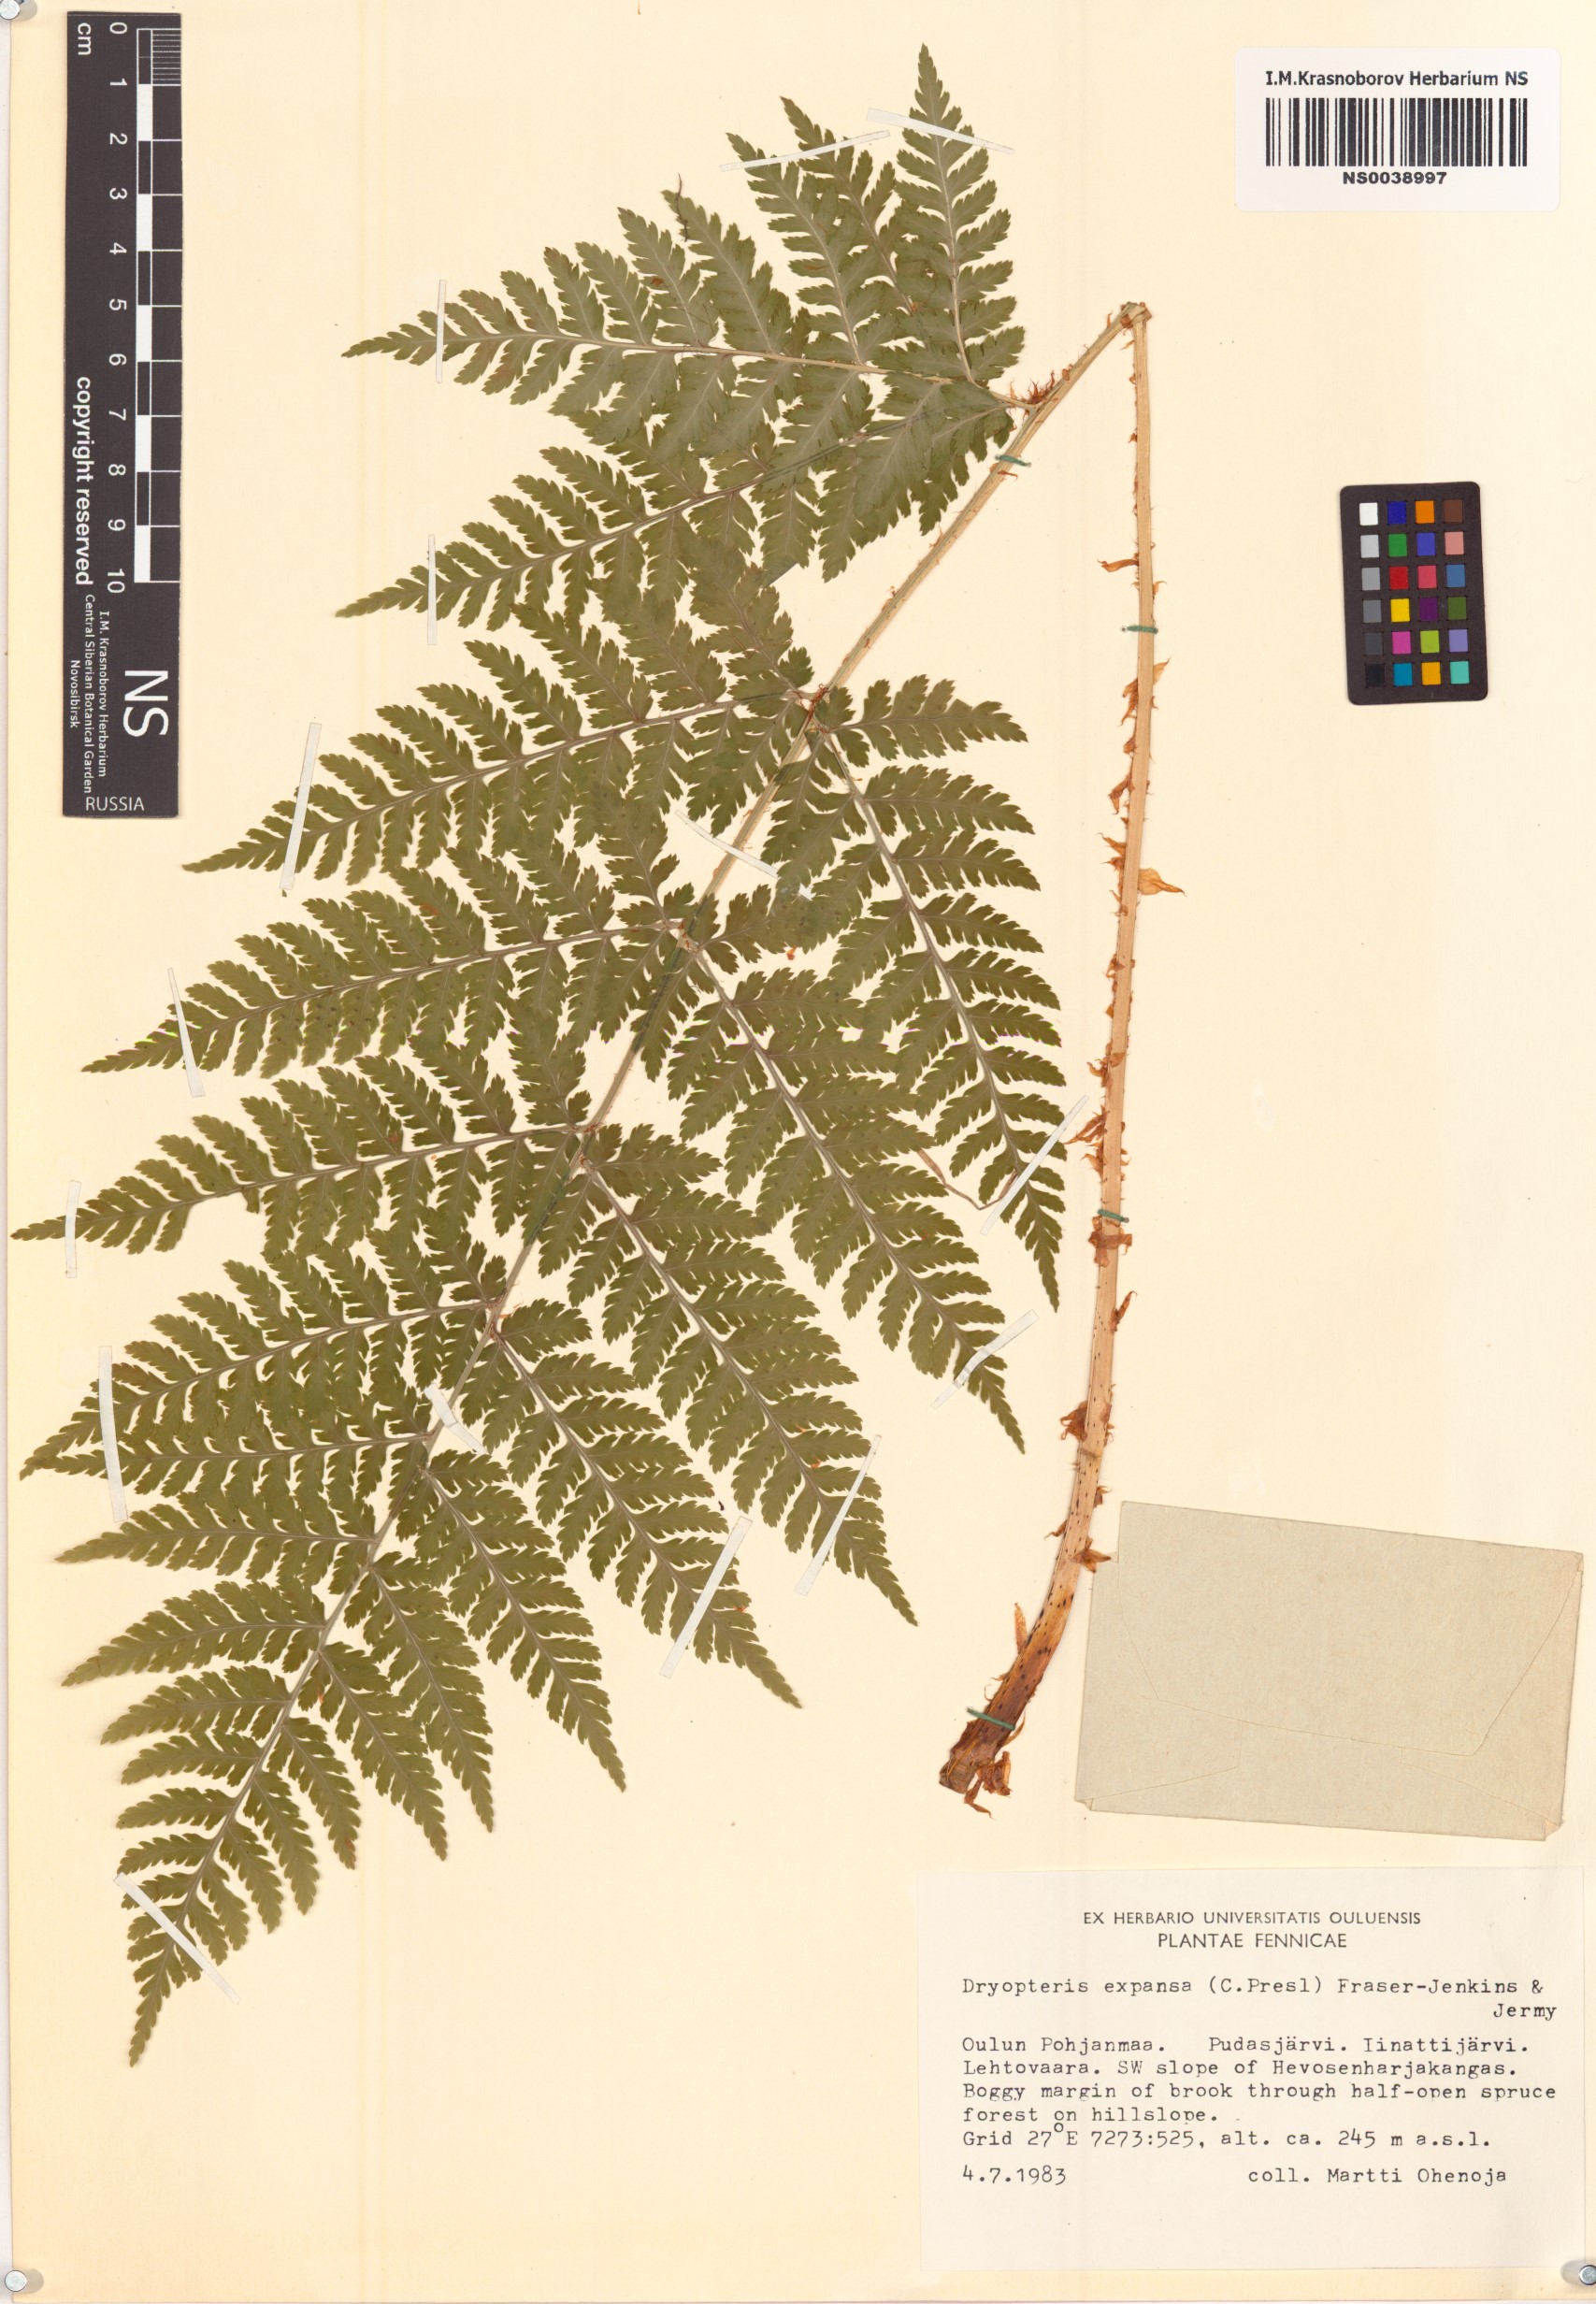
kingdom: Plantae
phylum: Tracheophyta
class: Polypodiopsida
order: Polypodiales
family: Dryopteridaceae
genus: Dryopteris
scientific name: Dryopteris expansa
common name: Northern buckler fern
